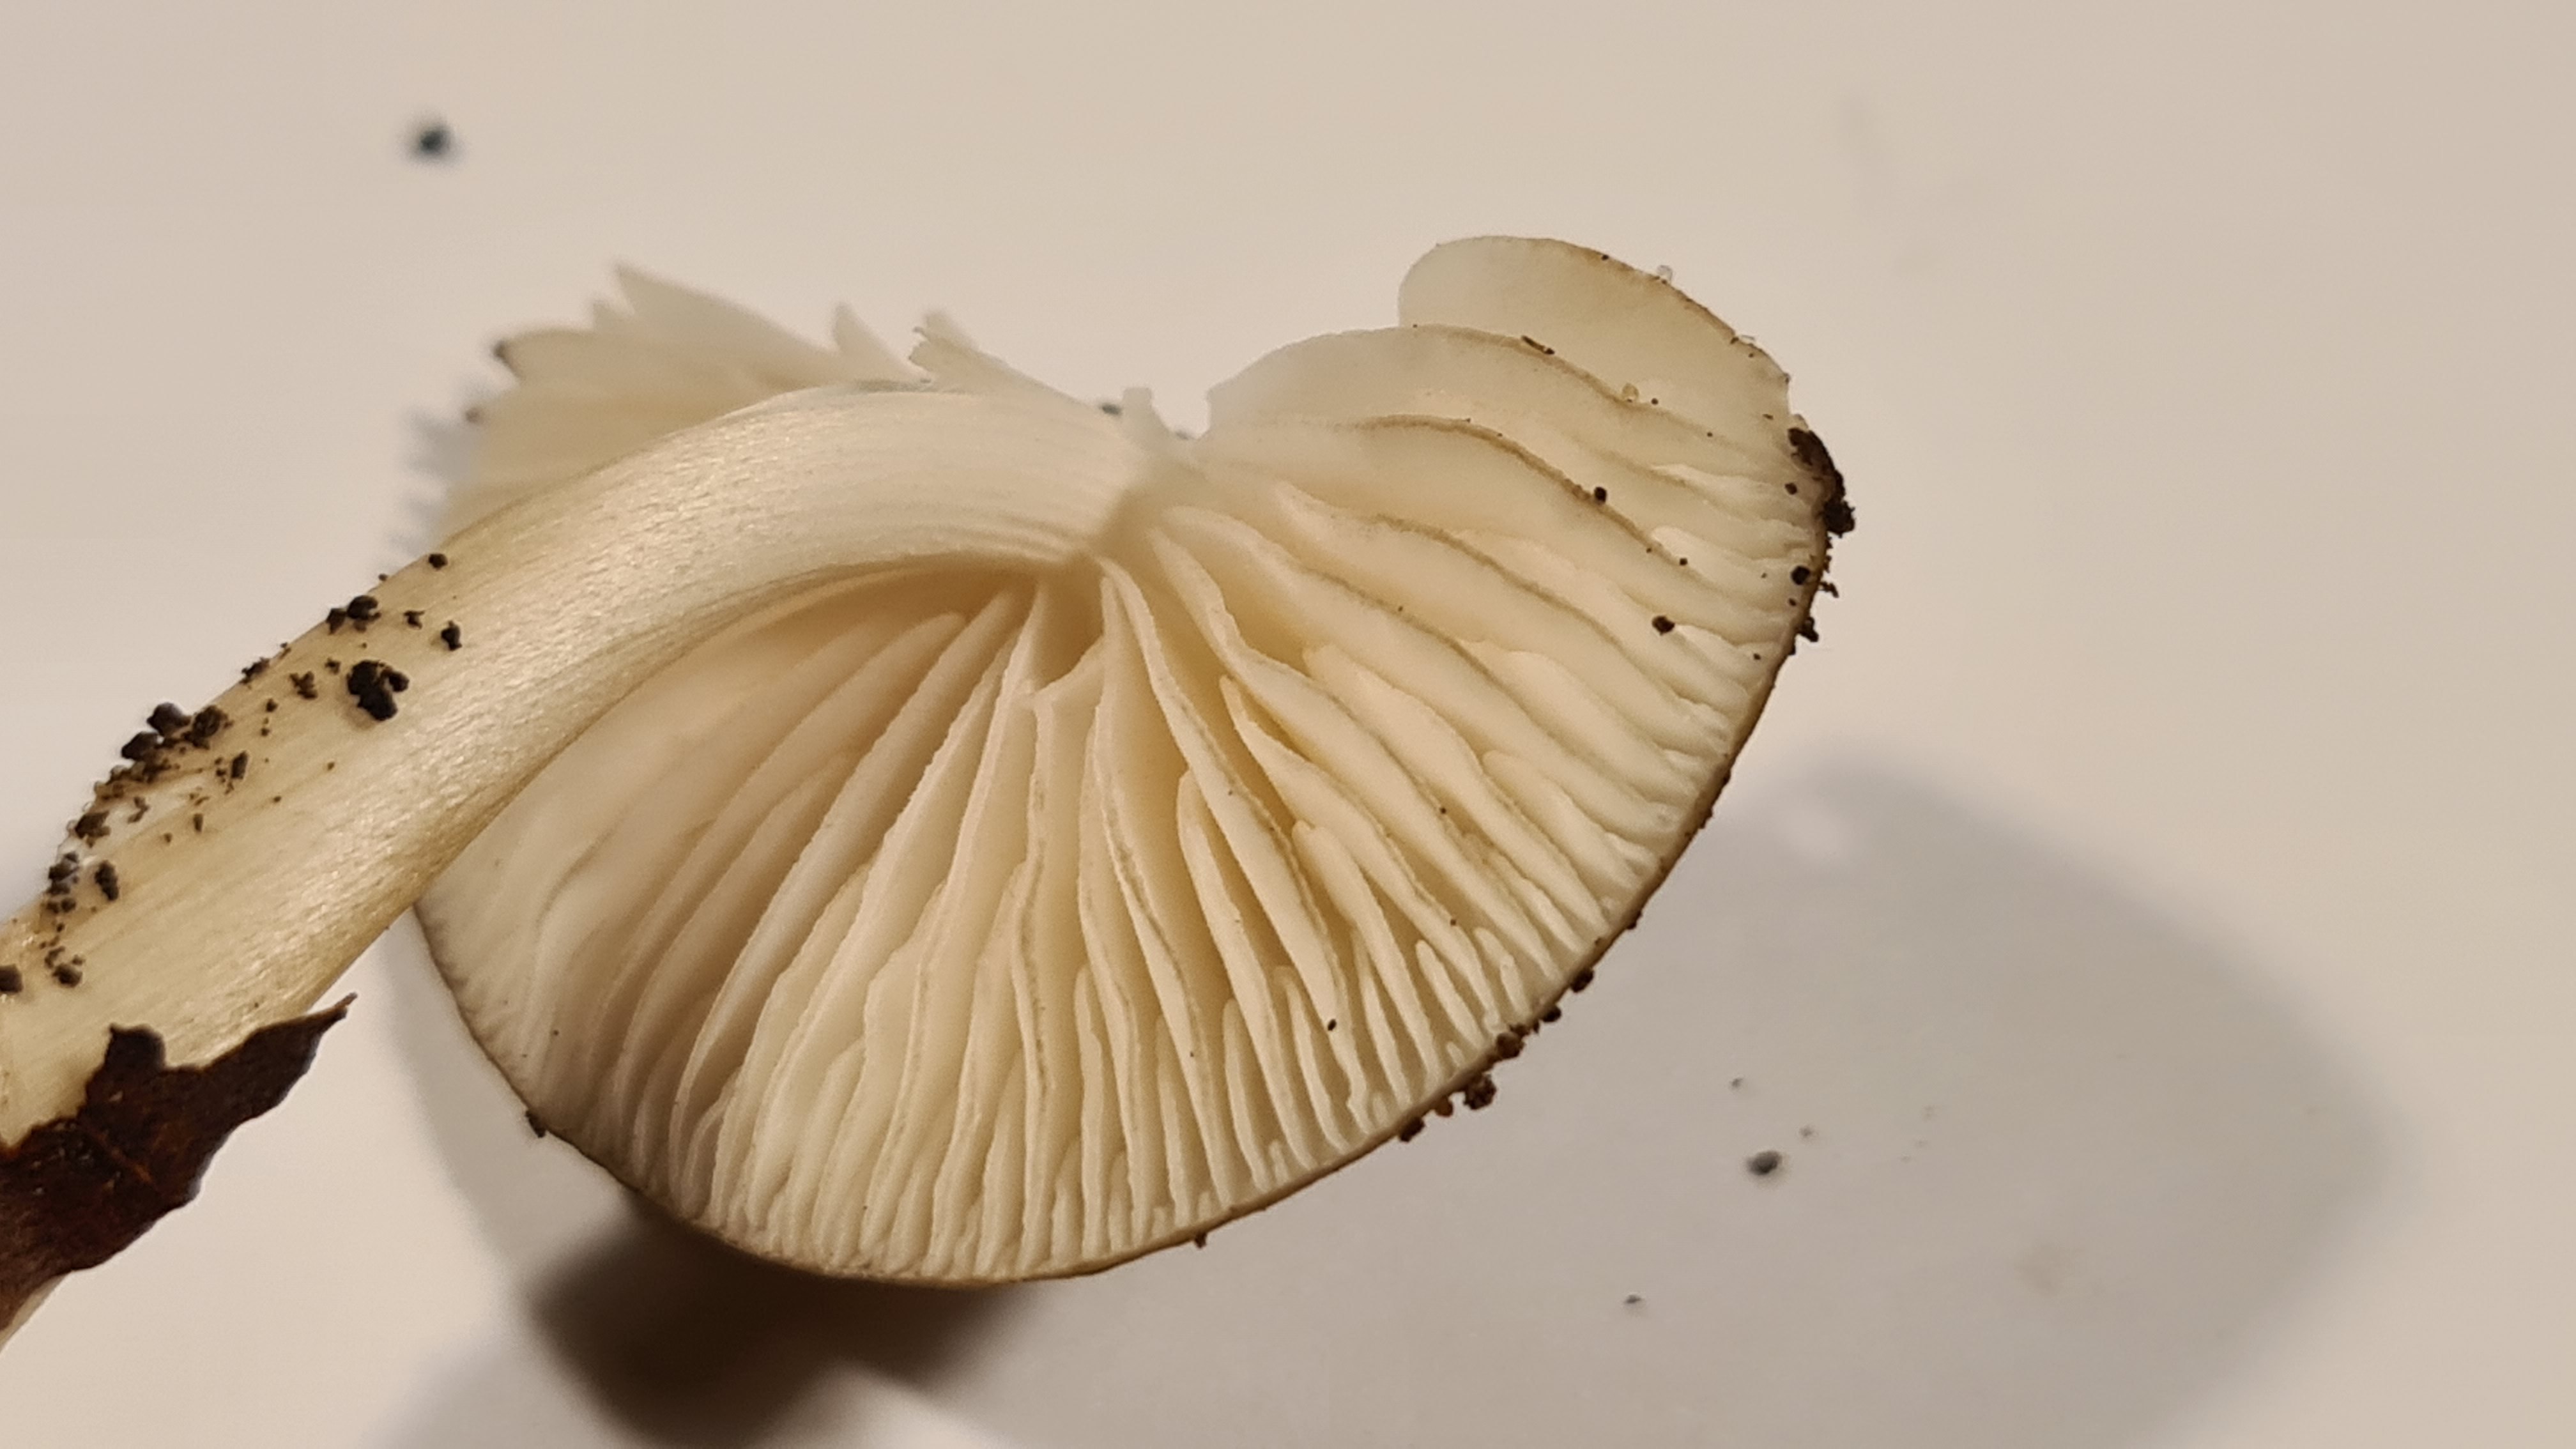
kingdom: Fungi
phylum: Basidiomycota
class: Agaricomycetes
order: Agaricales
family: Physalacriaceae
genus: Hymenopellis
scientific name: Hymenopellis radicata
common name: almindelig pælerodshat
